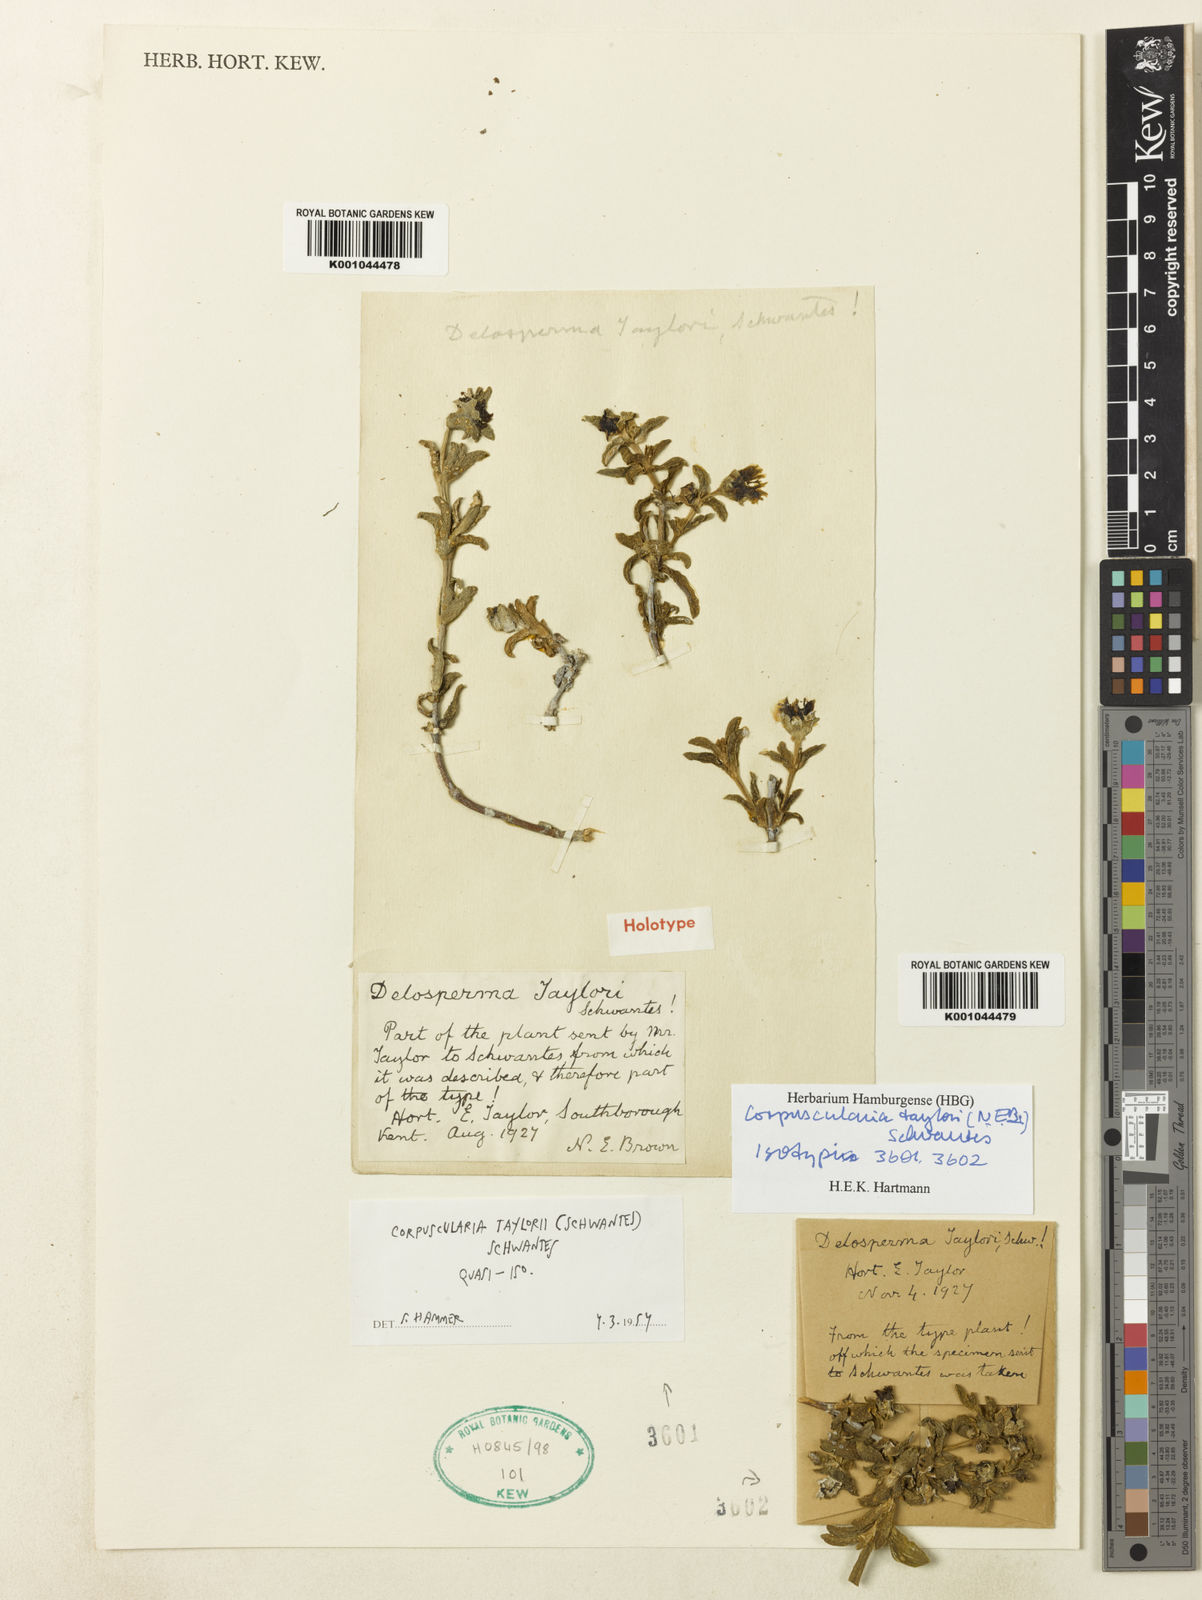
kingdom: Plantae
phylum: Tracheophyta
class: Magnoliopsida
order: Caryophyllales
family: Aizoaceae
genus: Corpuscularia
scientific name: Corpuscularia taylorii
